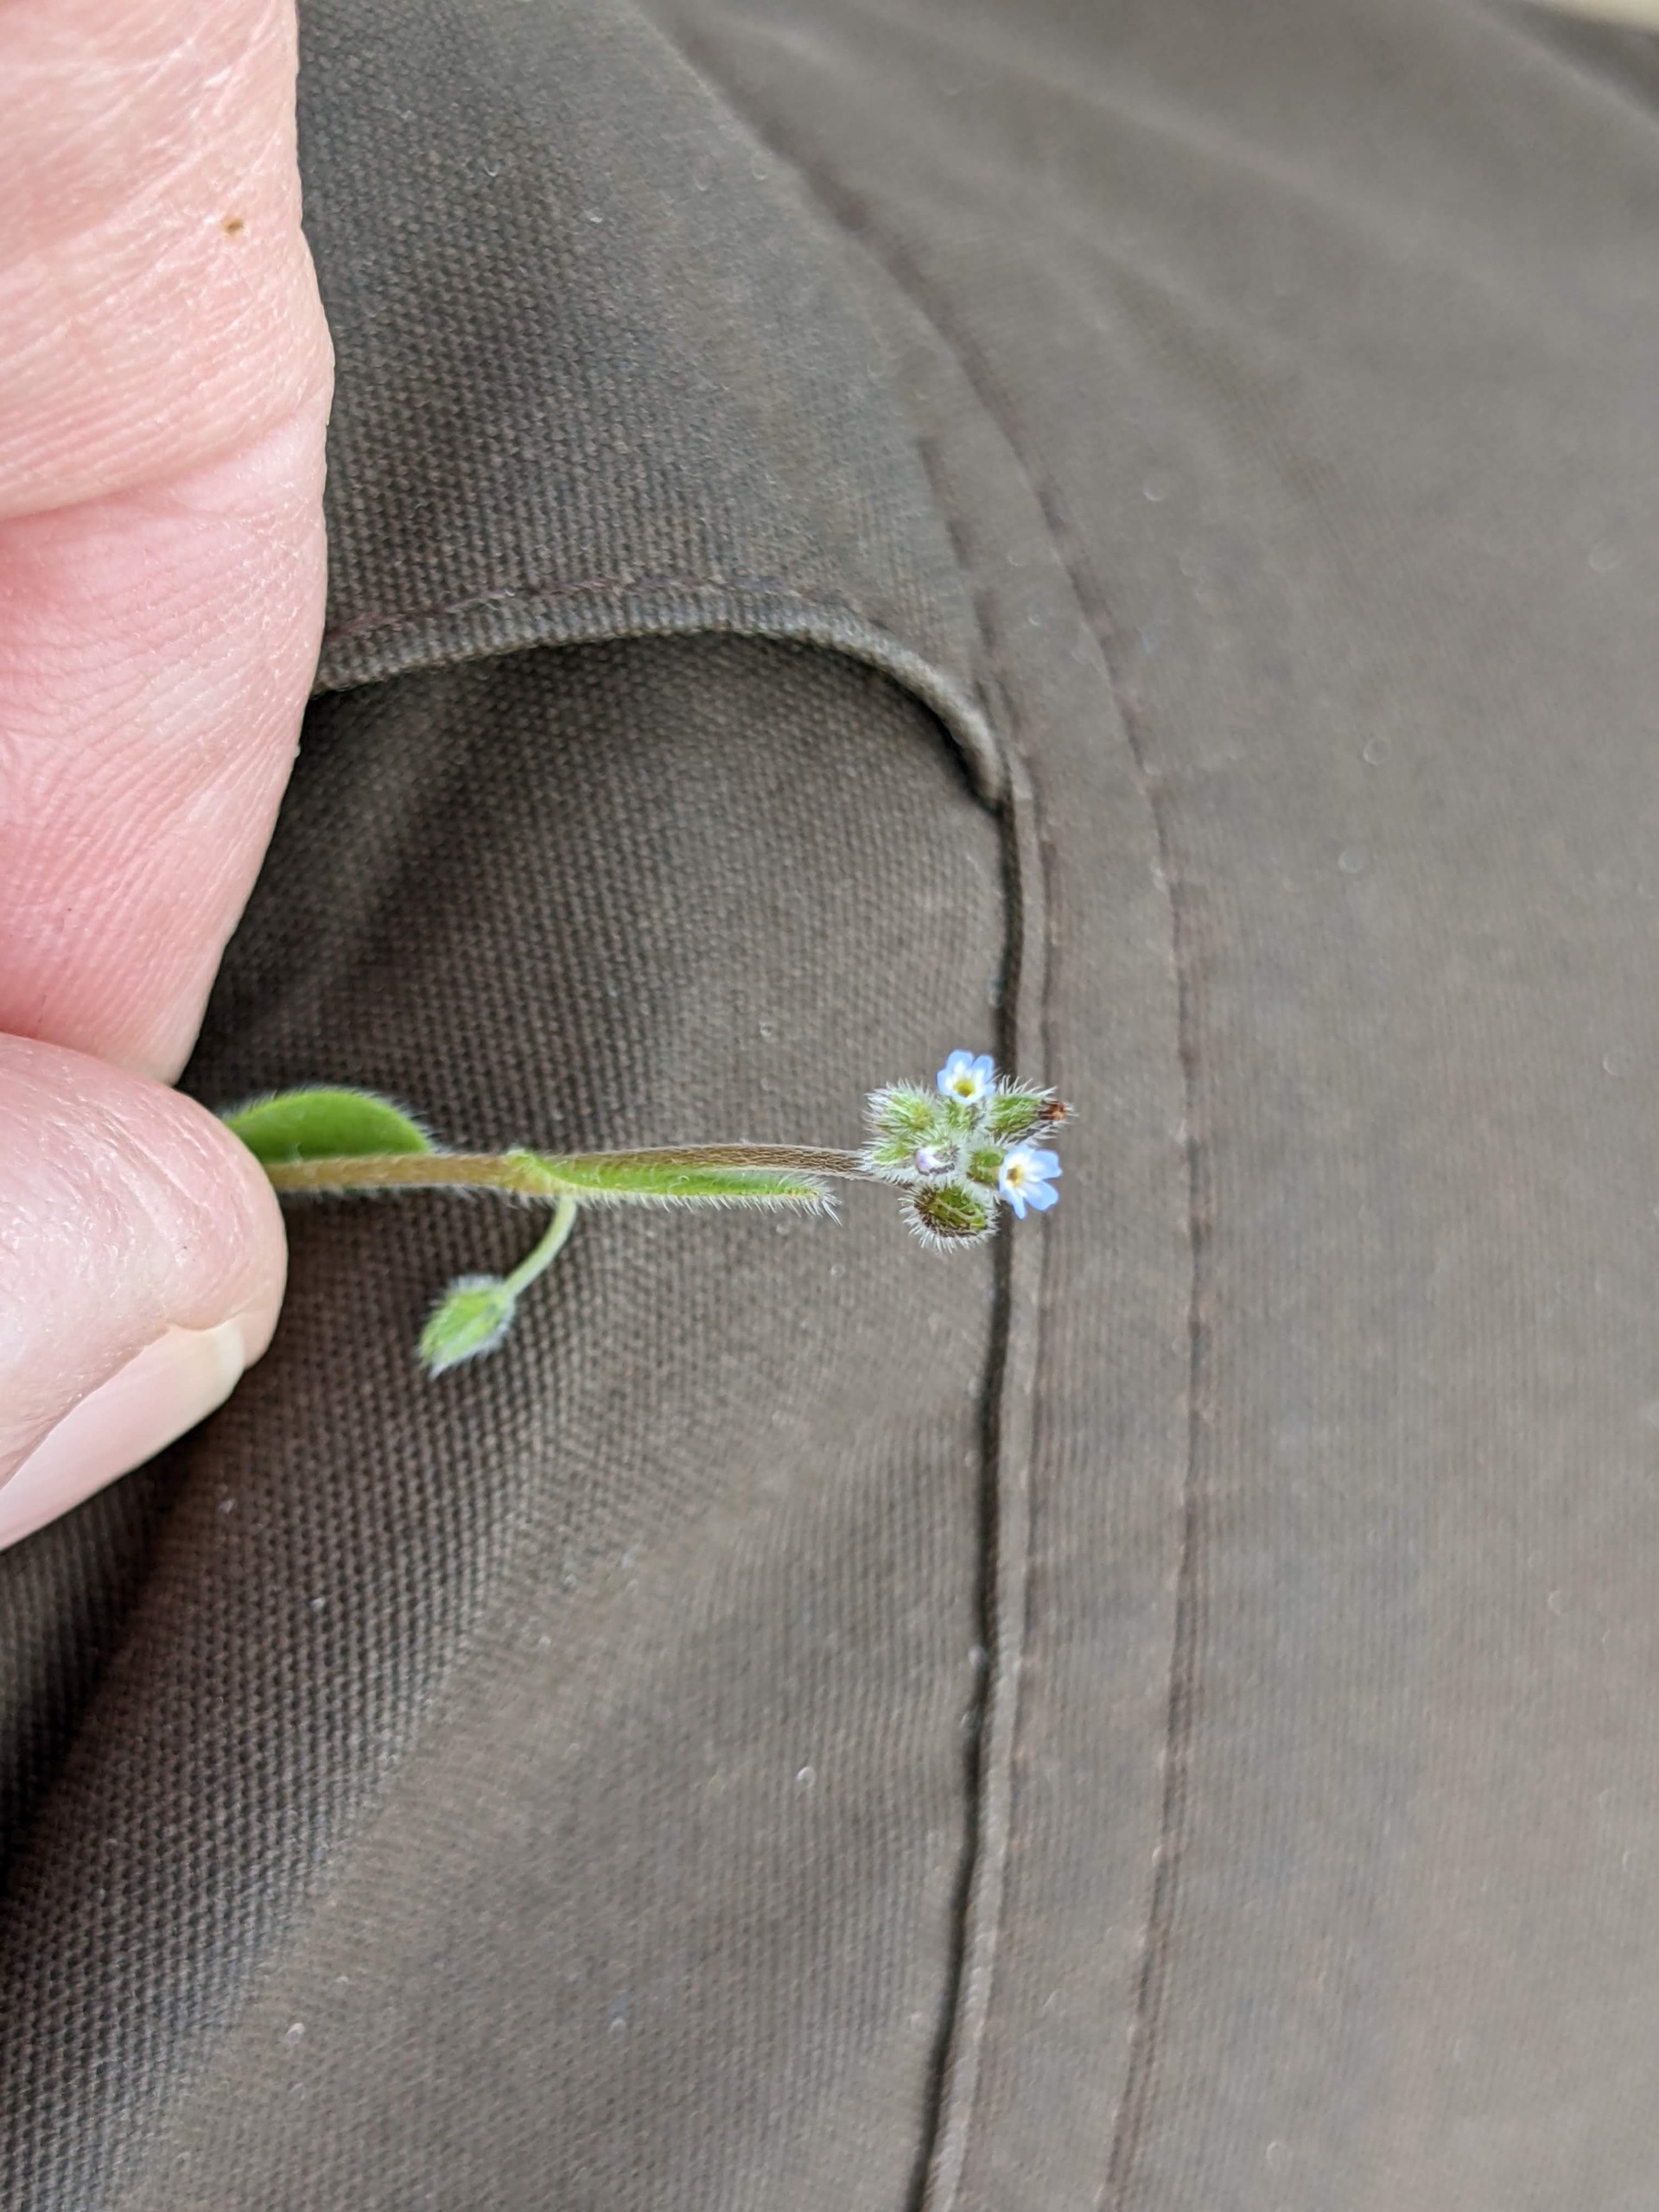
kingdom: Plantae
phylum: Tracheophyta
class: Magnoliopsida
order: Boraginales
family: Boraginaceae
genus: Myosotis
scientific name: Myosotis arvensis
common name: Mark-forglemmigej
